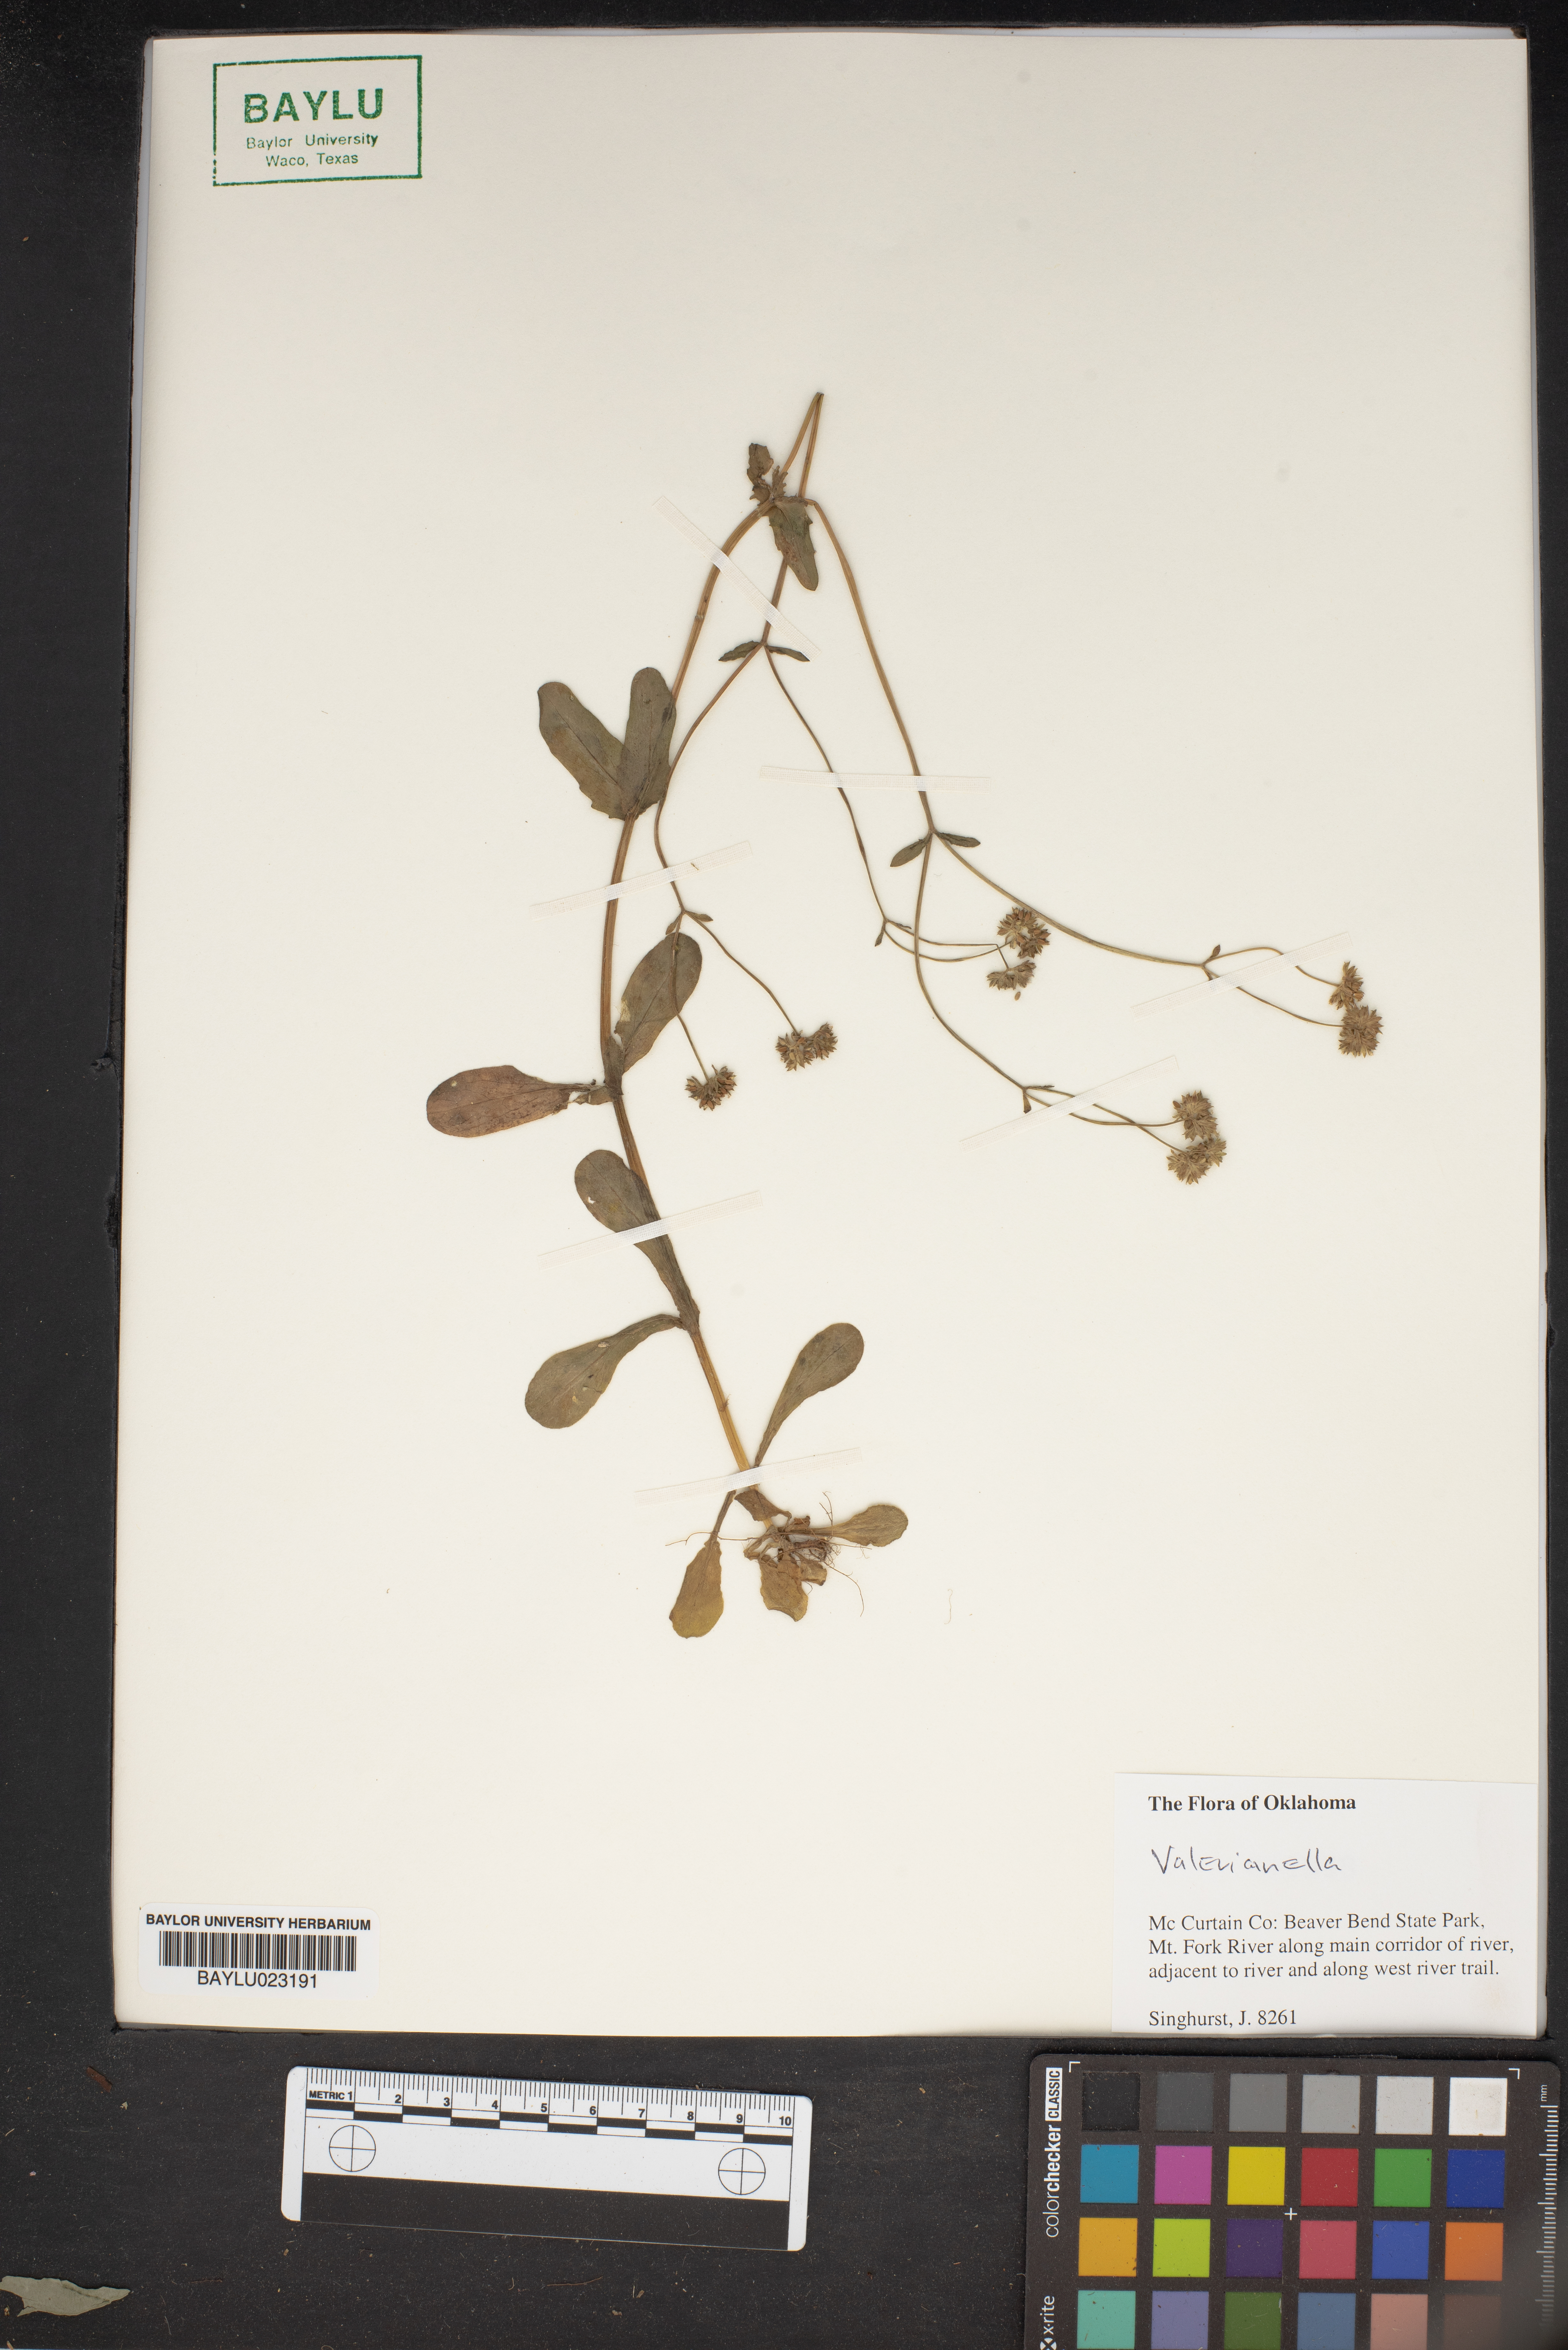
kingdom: Plantae
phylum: Tracheophyta
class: Magnoliopsida
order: Dipsacales
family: Caprifoliaceae
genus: Valerianella
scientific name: Valerianella
